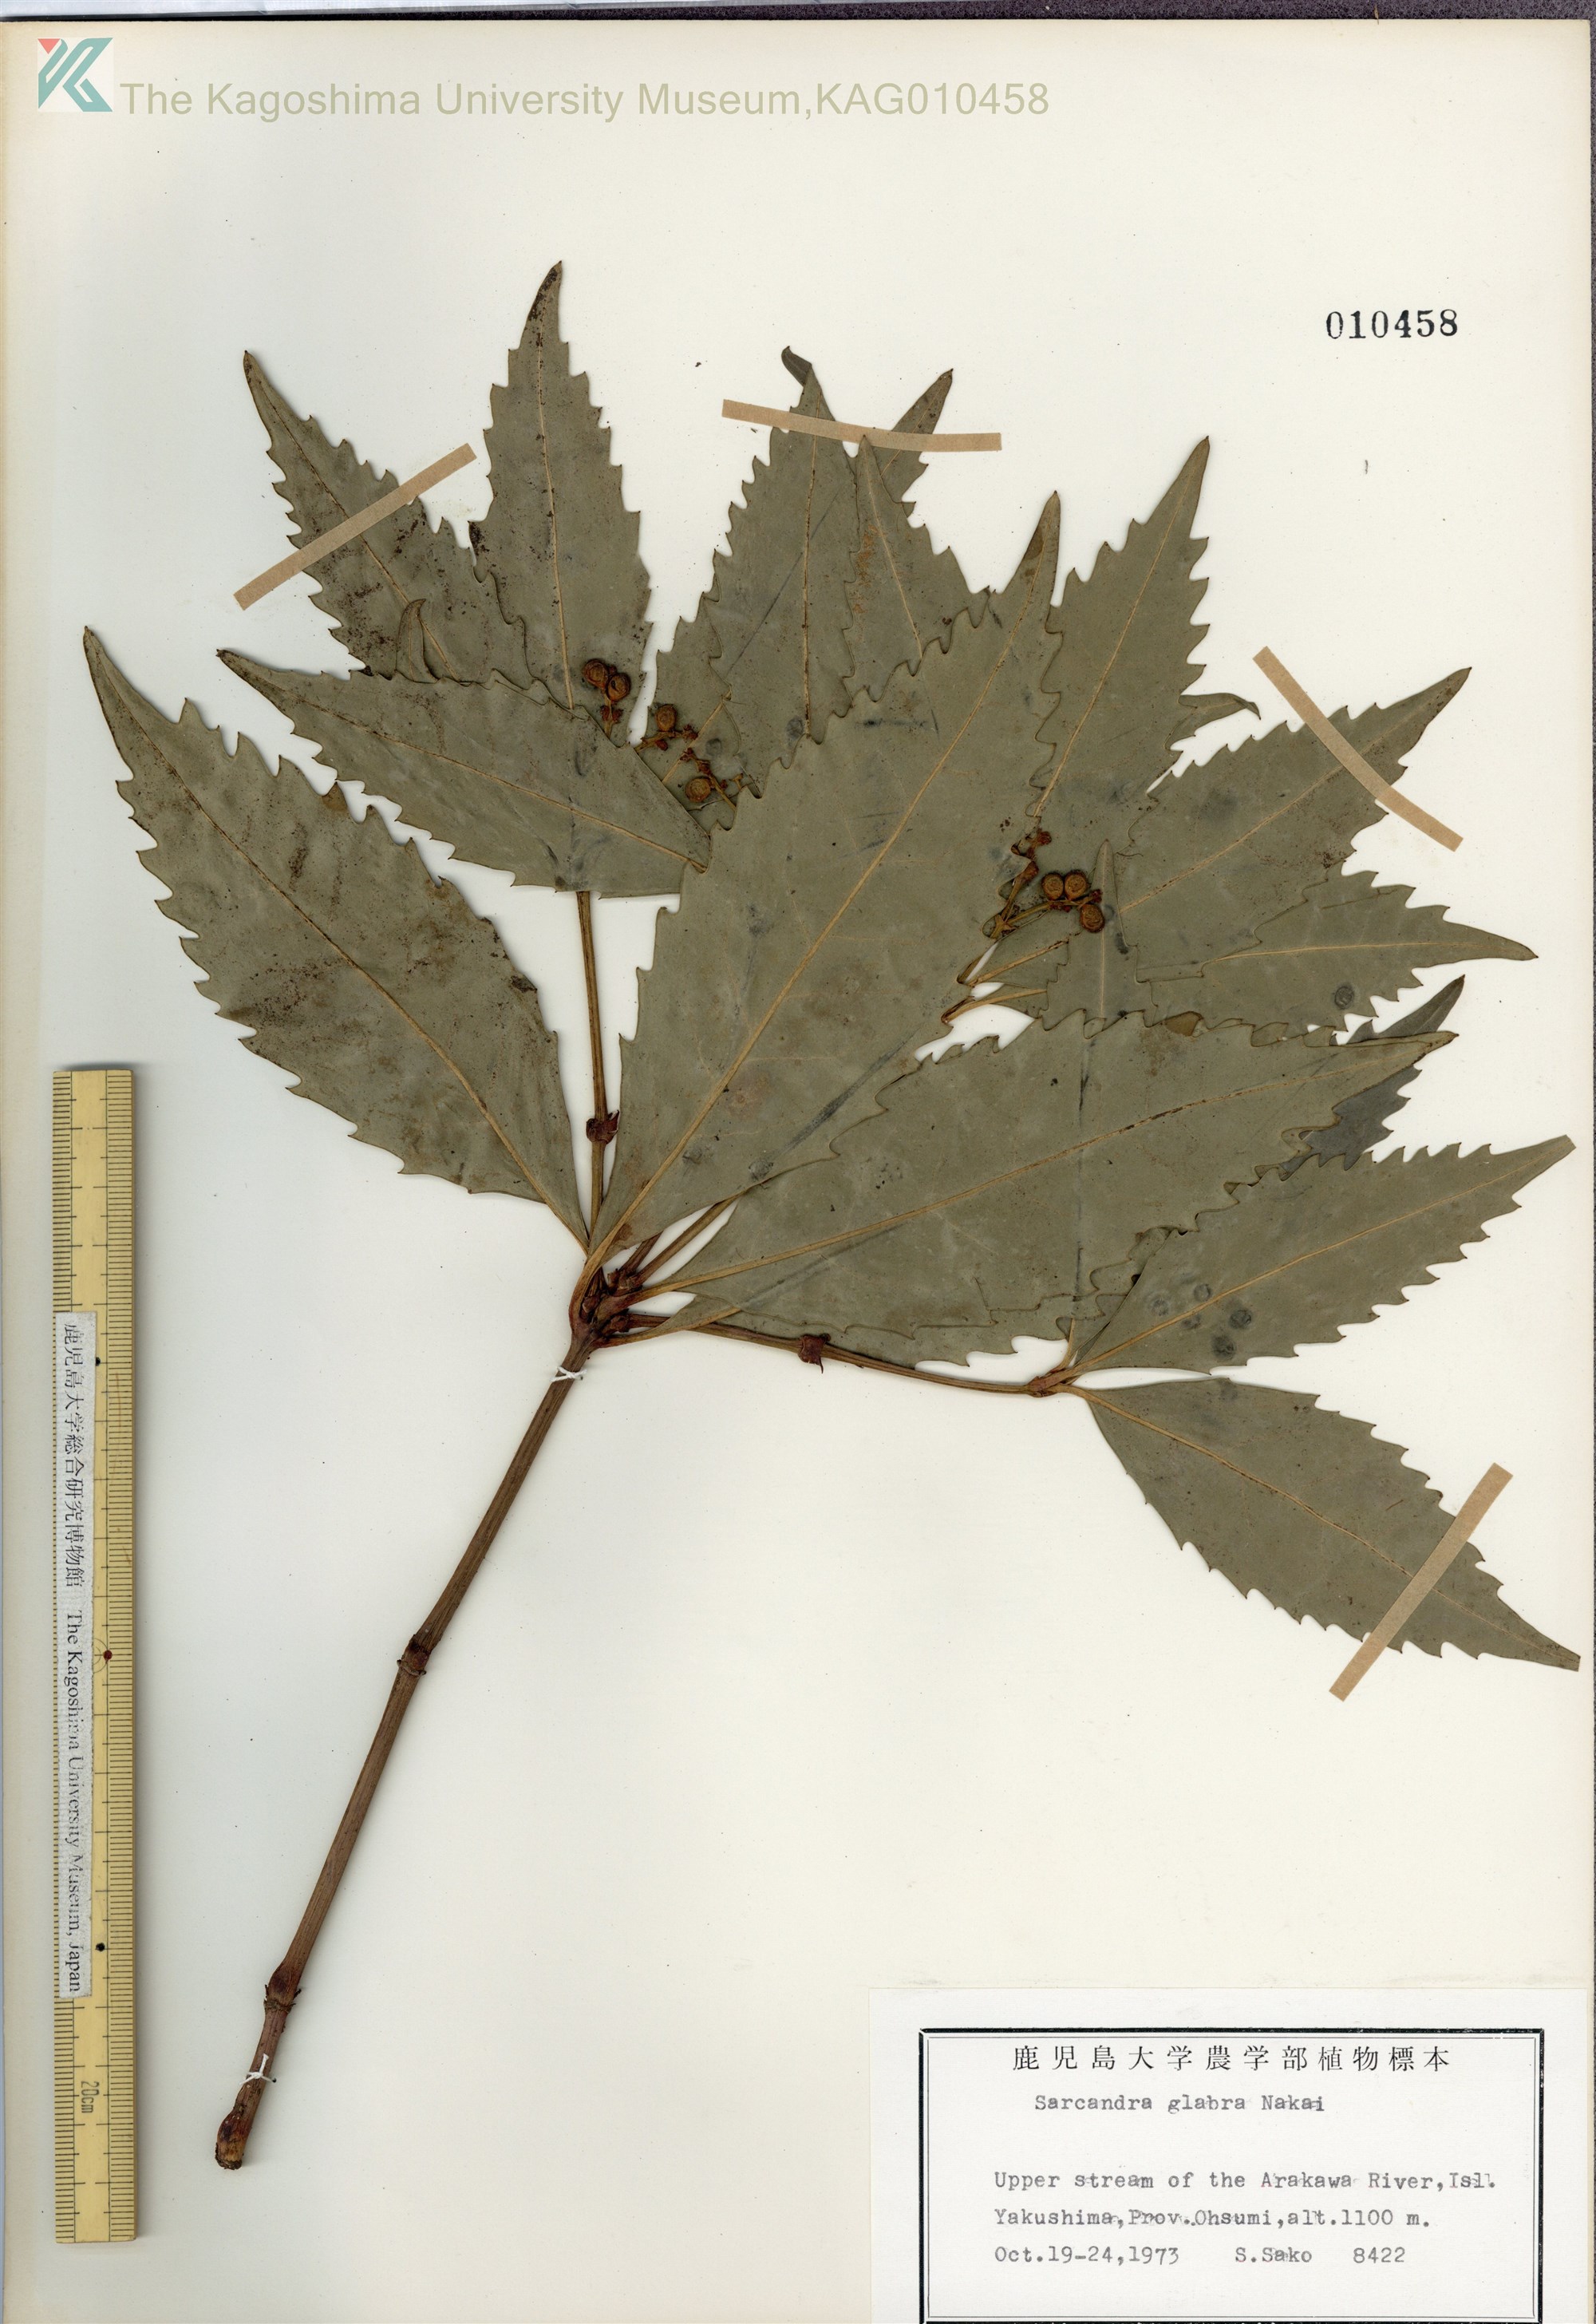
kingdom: Plantae
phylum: Tracheophyta
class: Magnoliopsida
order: Chloranthales
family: Chloranthaceae
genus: Sarcandra
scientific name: Sarcandra glabra
